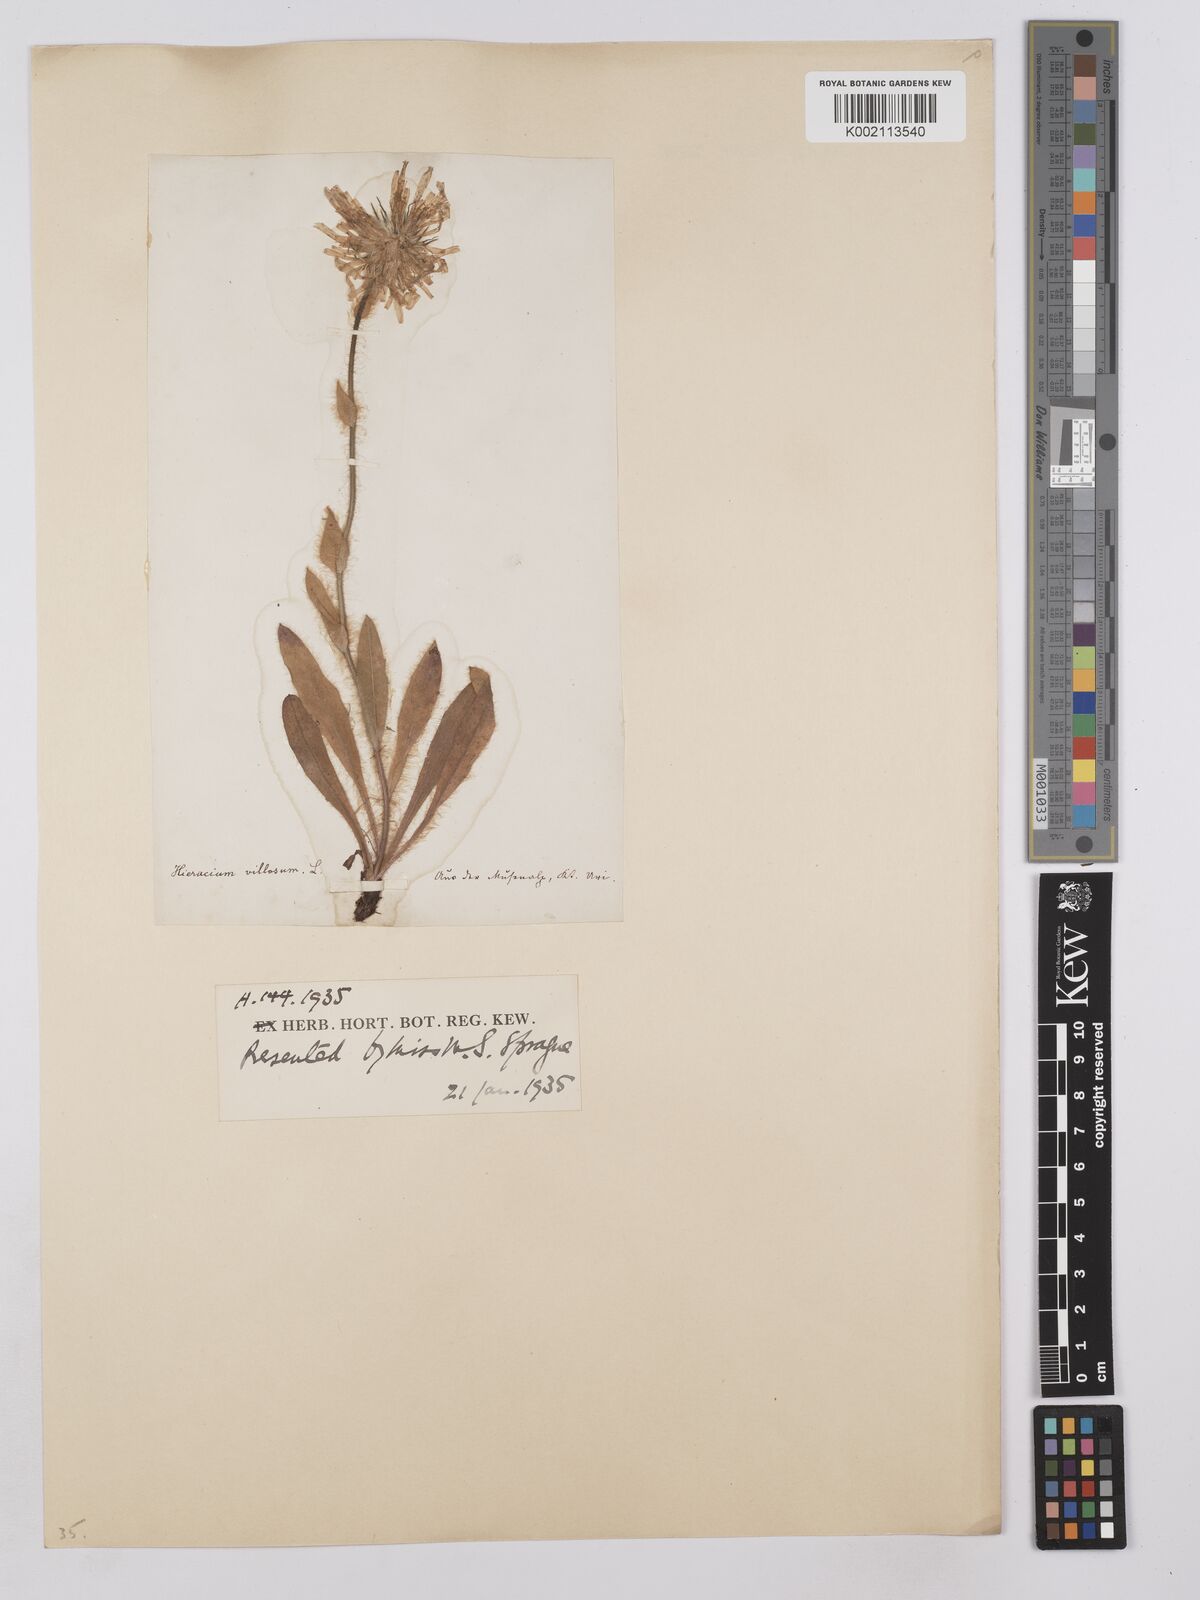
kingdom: Plantae
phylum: Tracheophyta
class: Magnoliopsida
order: Asterales
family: Asteraceae
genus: Hieracium
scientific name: Hieracium
